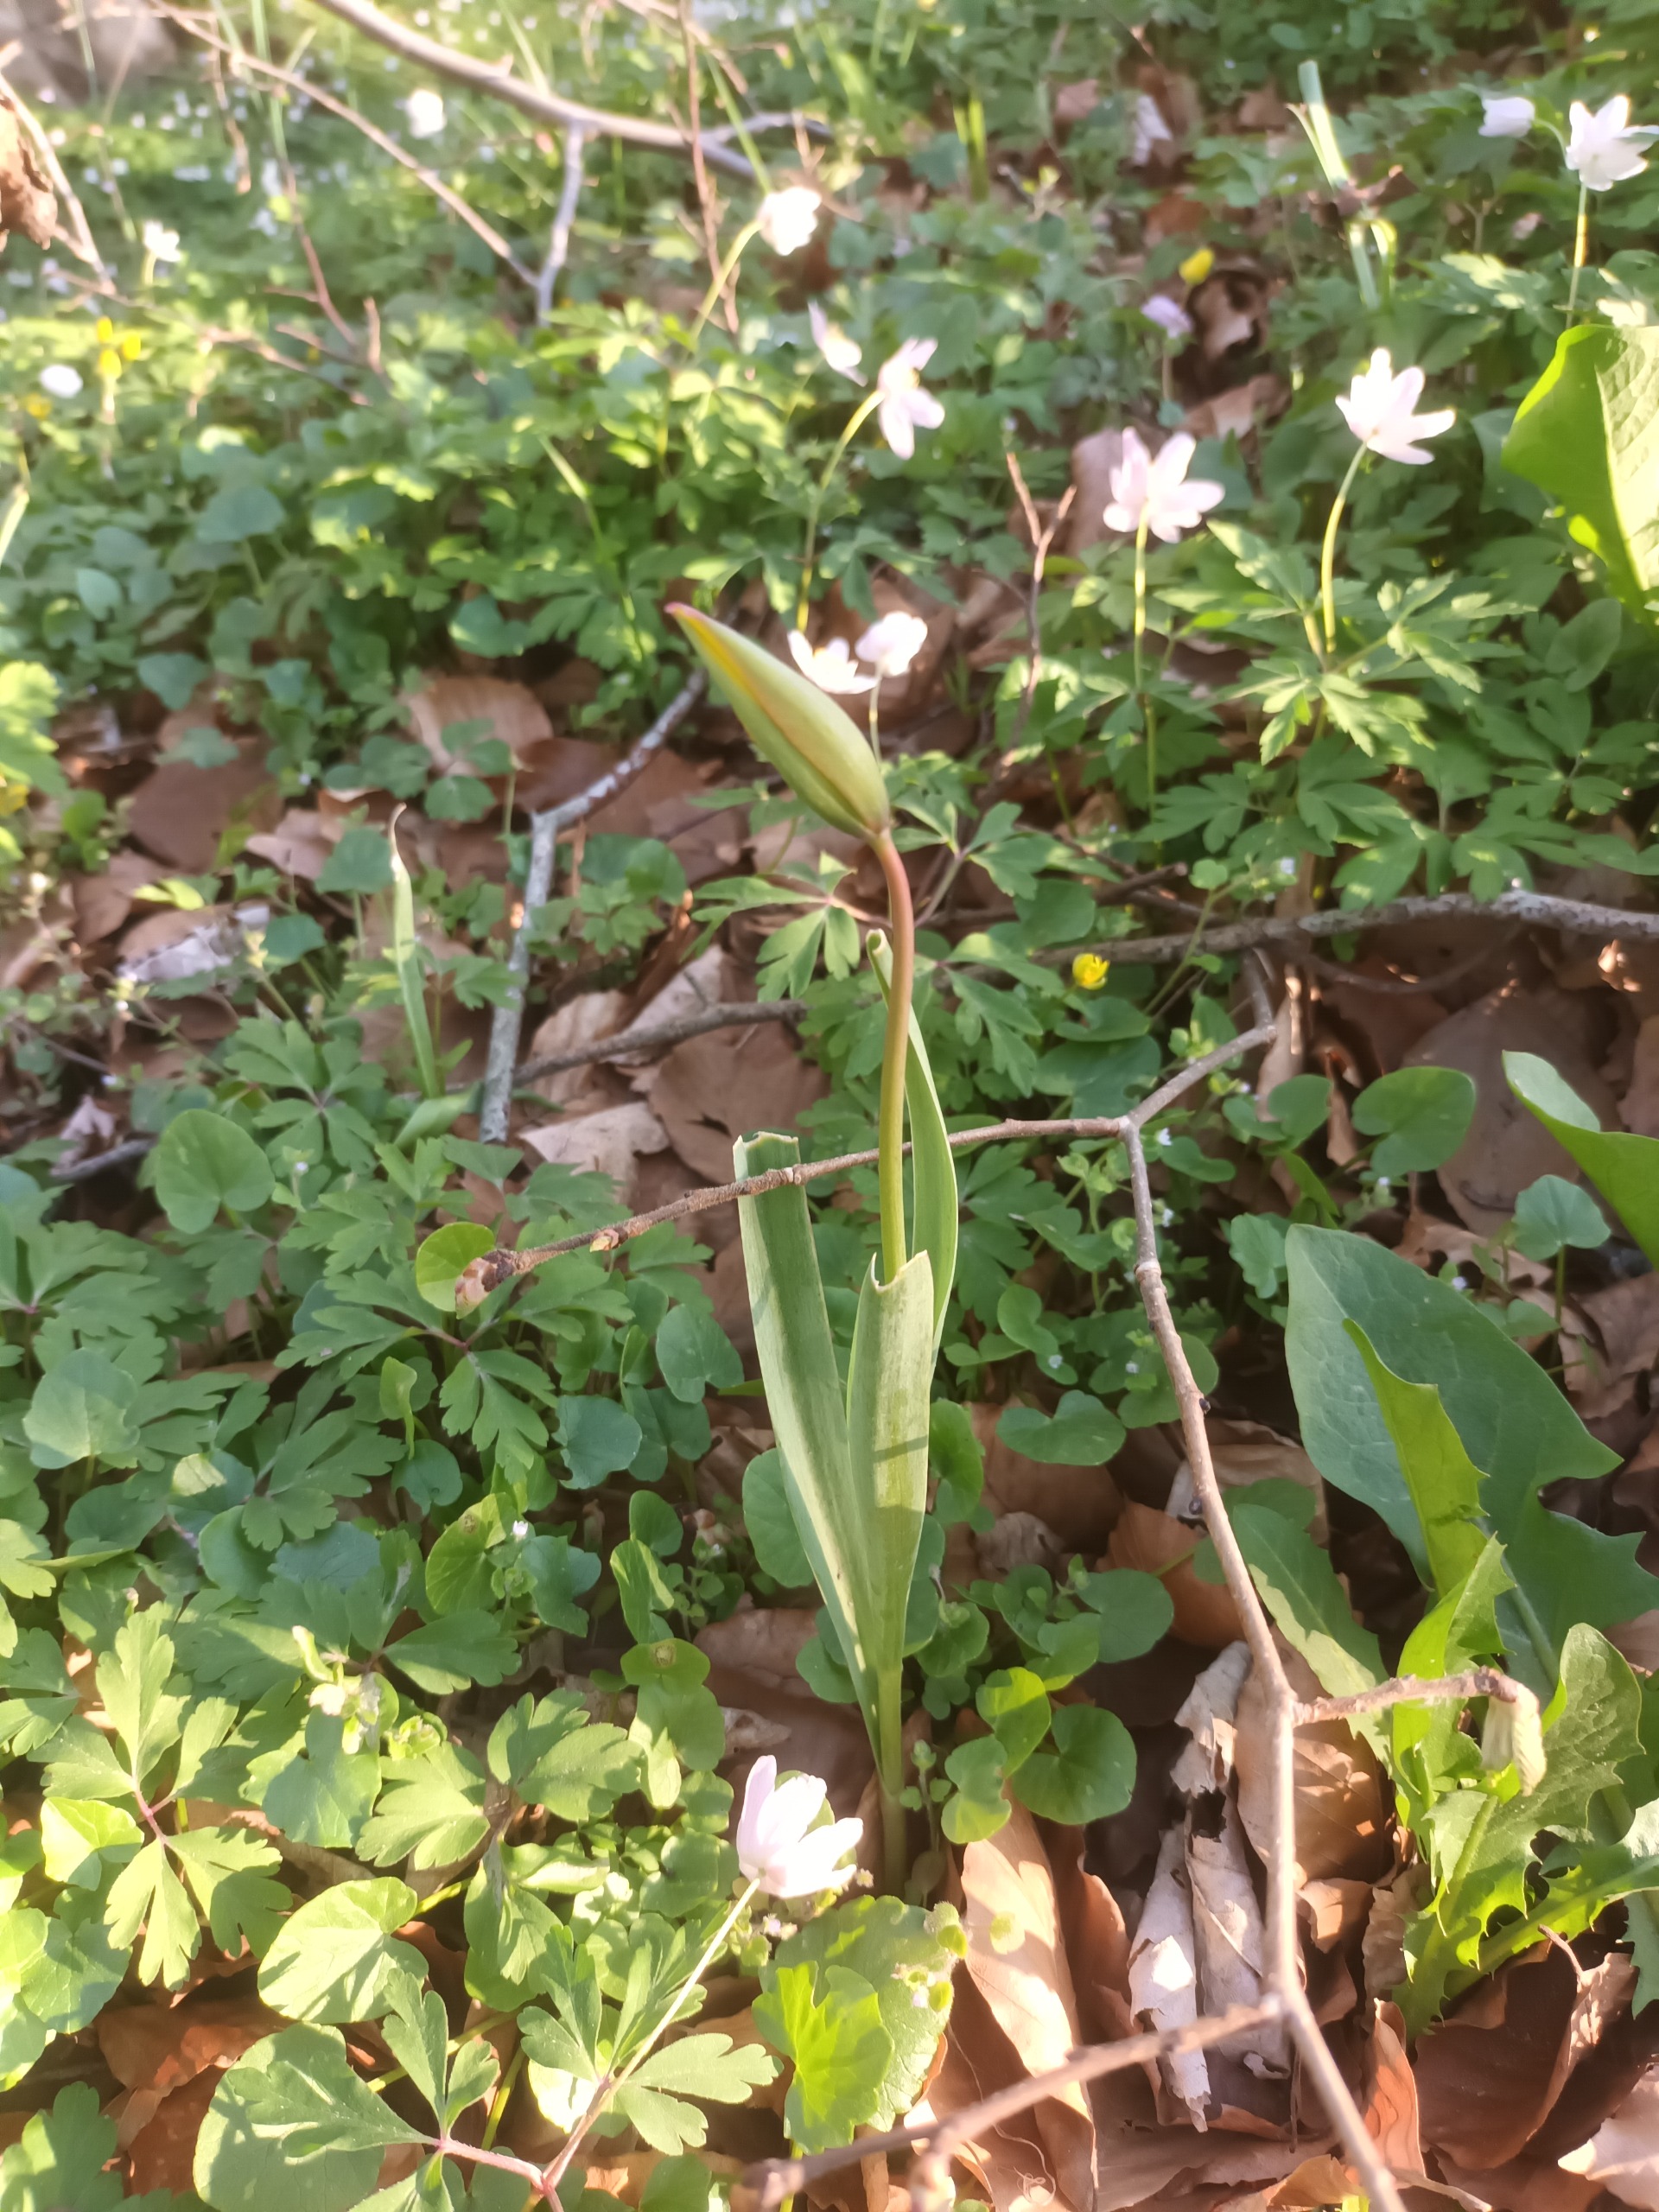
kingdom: Plantae
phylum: Tracheophyta
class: Liliopsida
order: Liliales
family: Liliaceae
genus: Tulipa
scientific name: Tulipa sylvestris
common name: Vild tulipan
